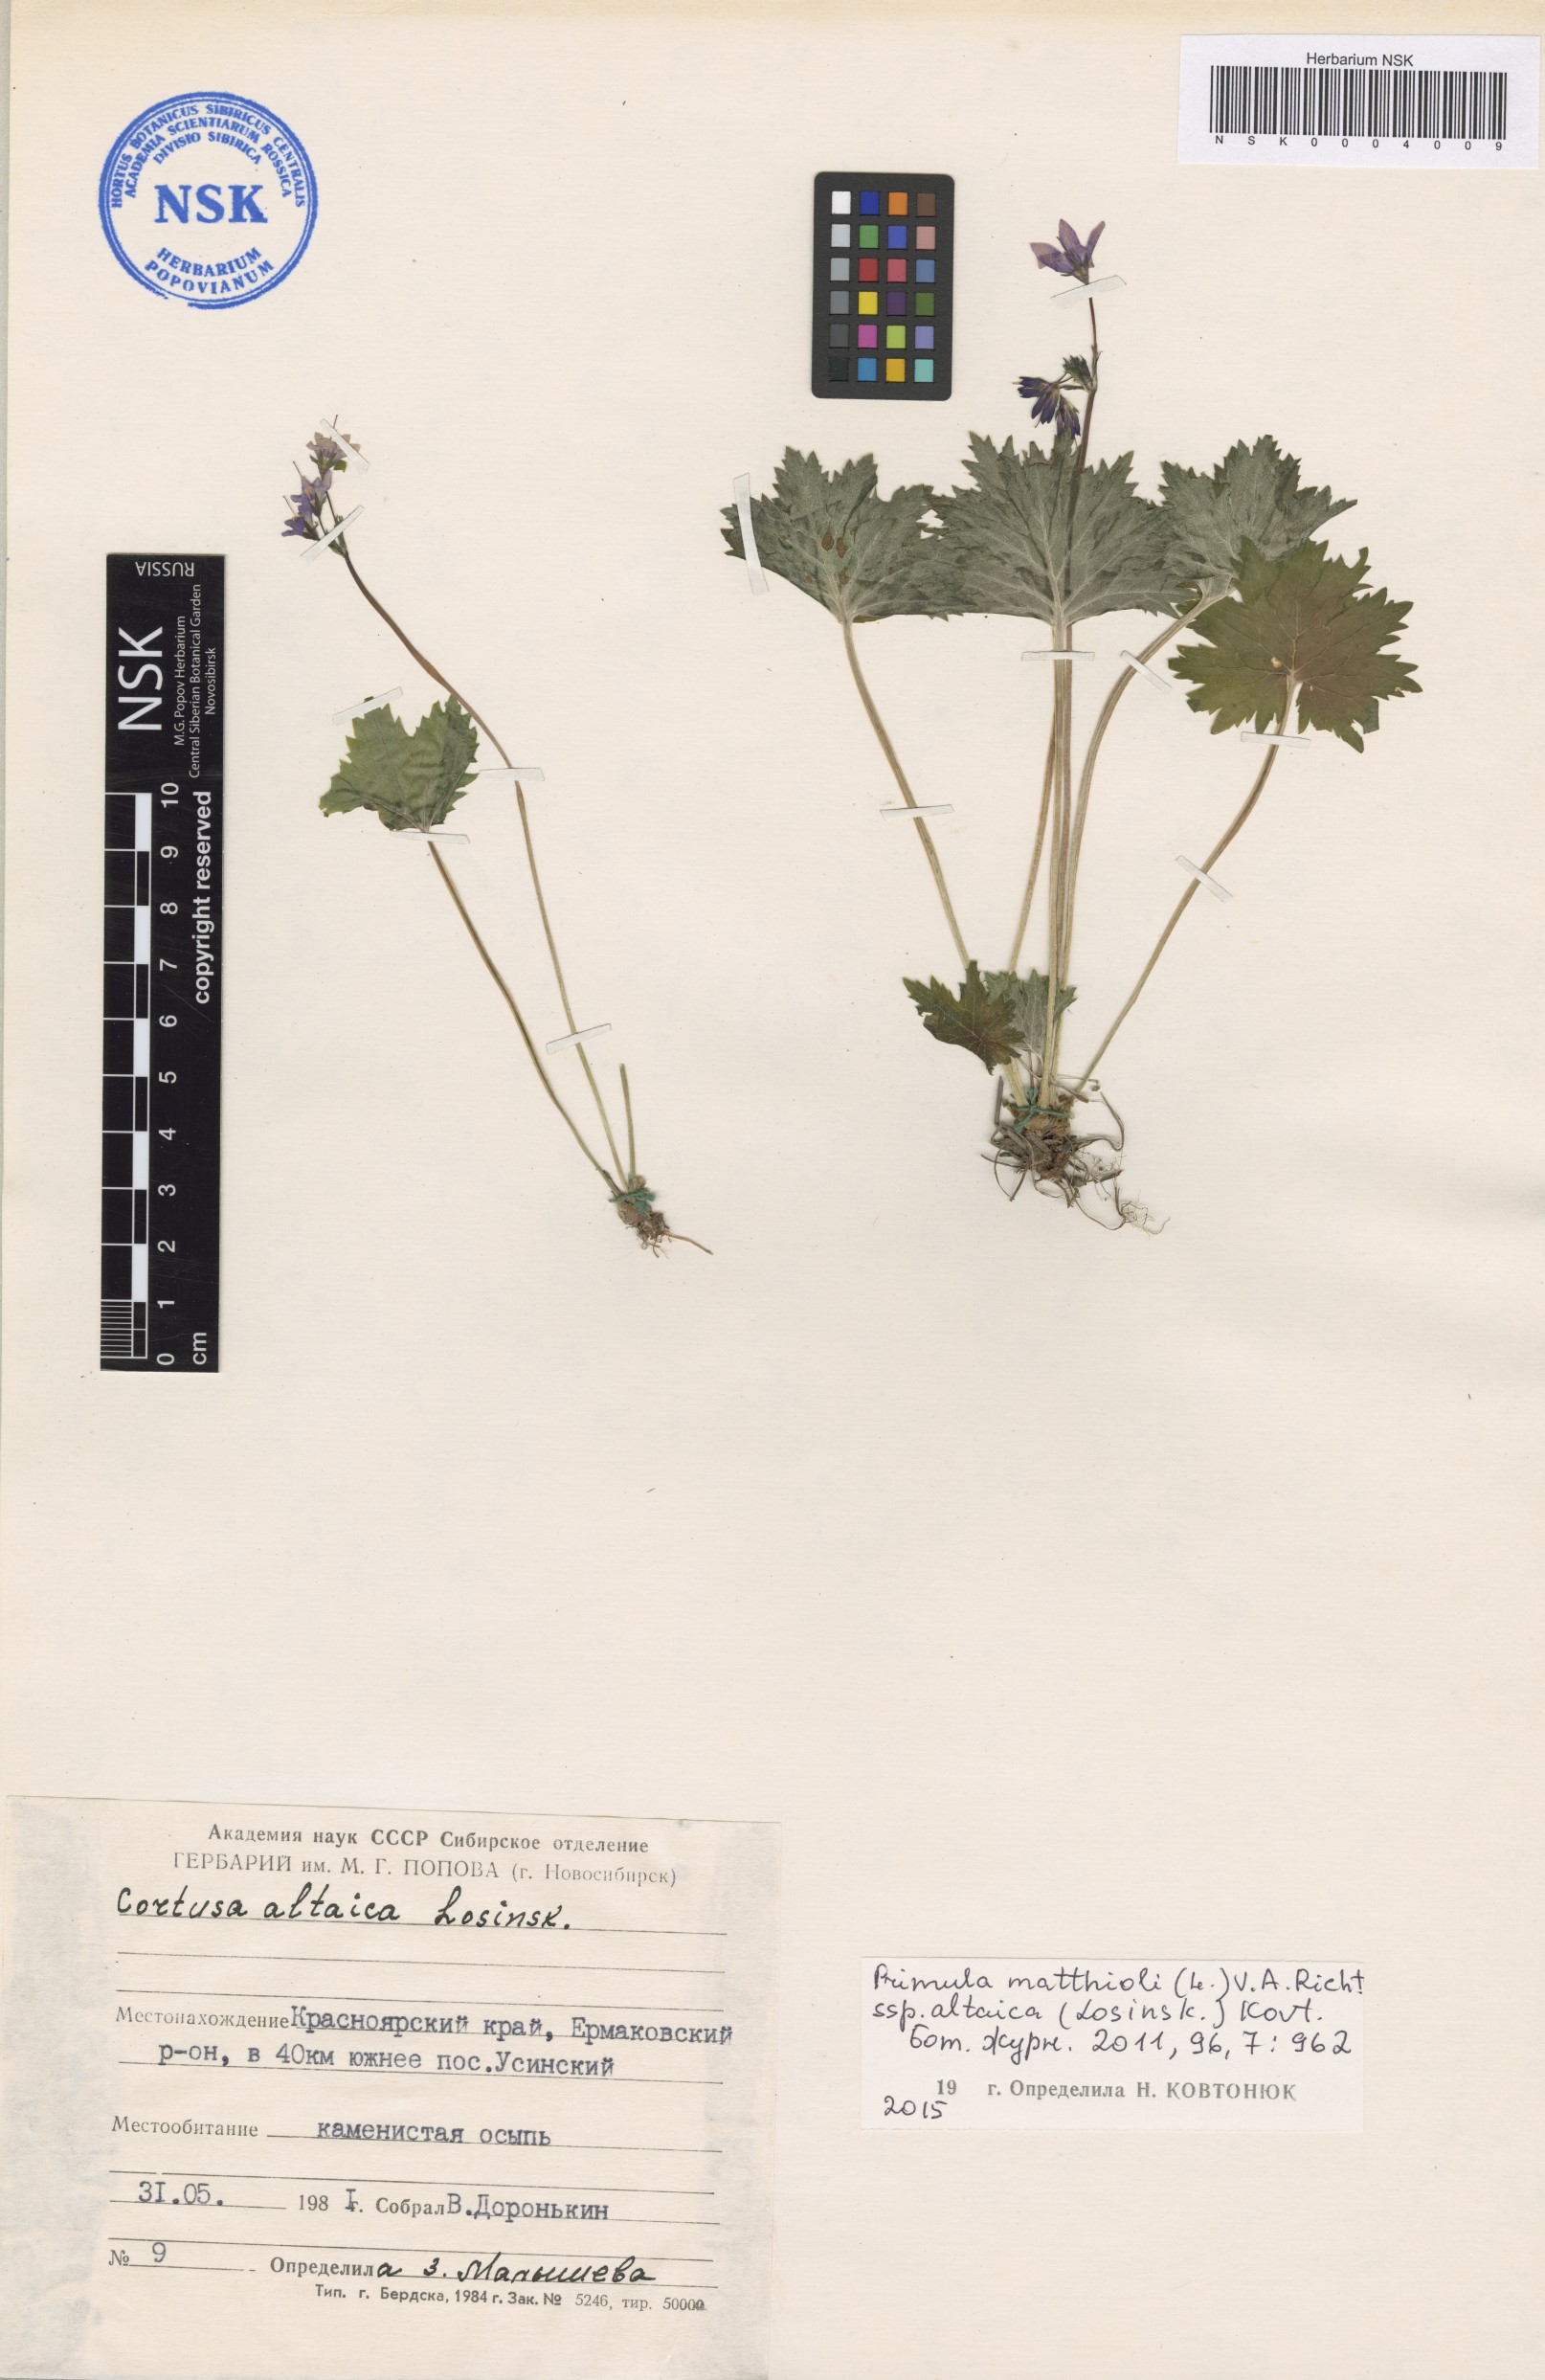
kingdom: Plantae
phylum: Tracheophyta
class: Magnoliopsida
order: Ericales
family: Primulaceae
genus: Primula
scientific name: Primula matthioli
